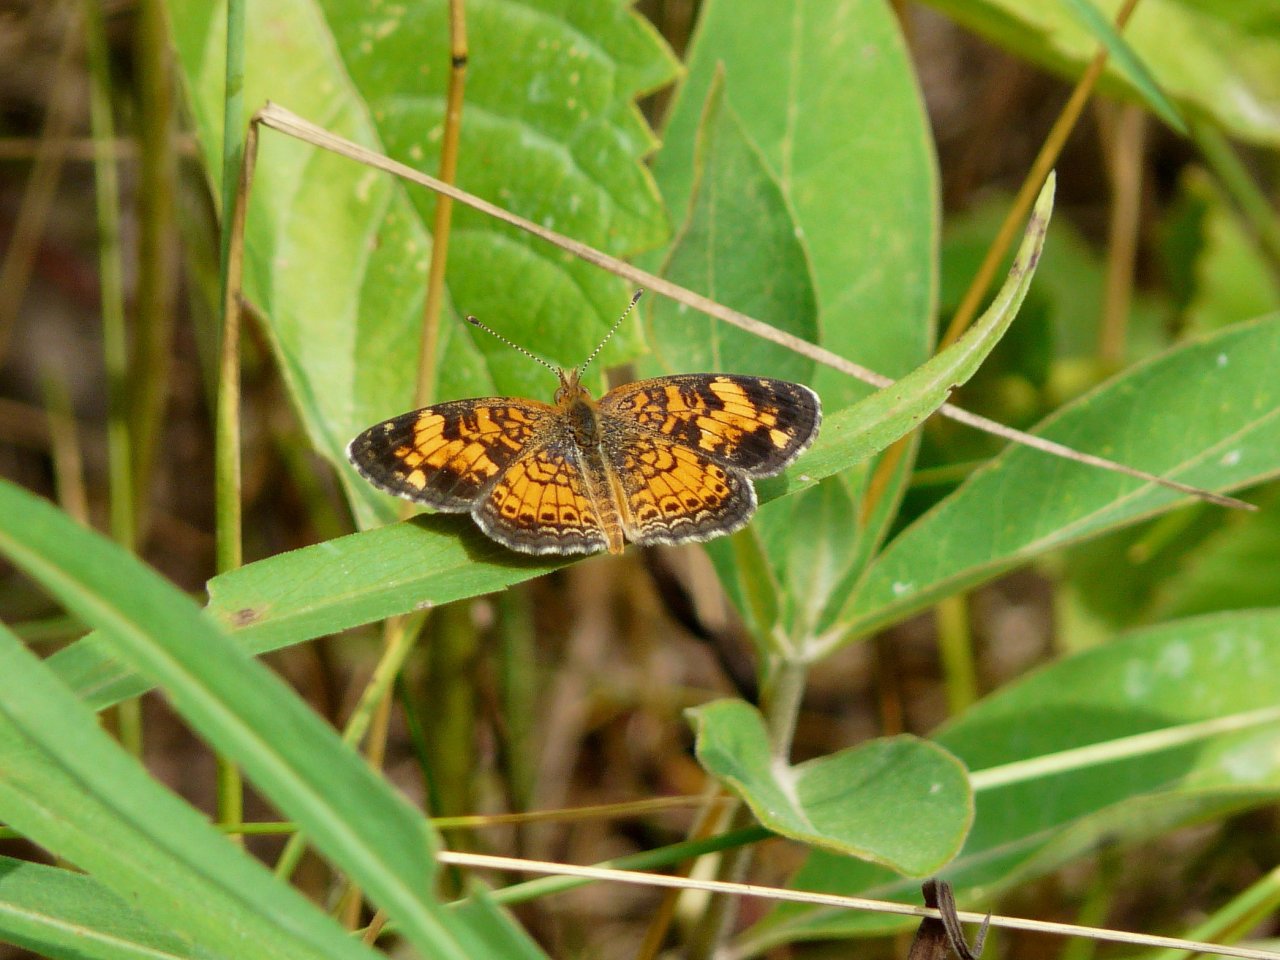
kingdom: Animalia
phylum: Arthropoda
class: Insecta
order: Lepidoptera
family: Nymphalidae
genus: Phyciodes
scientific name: Phyciodes tharos
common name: Pearl Crescent
